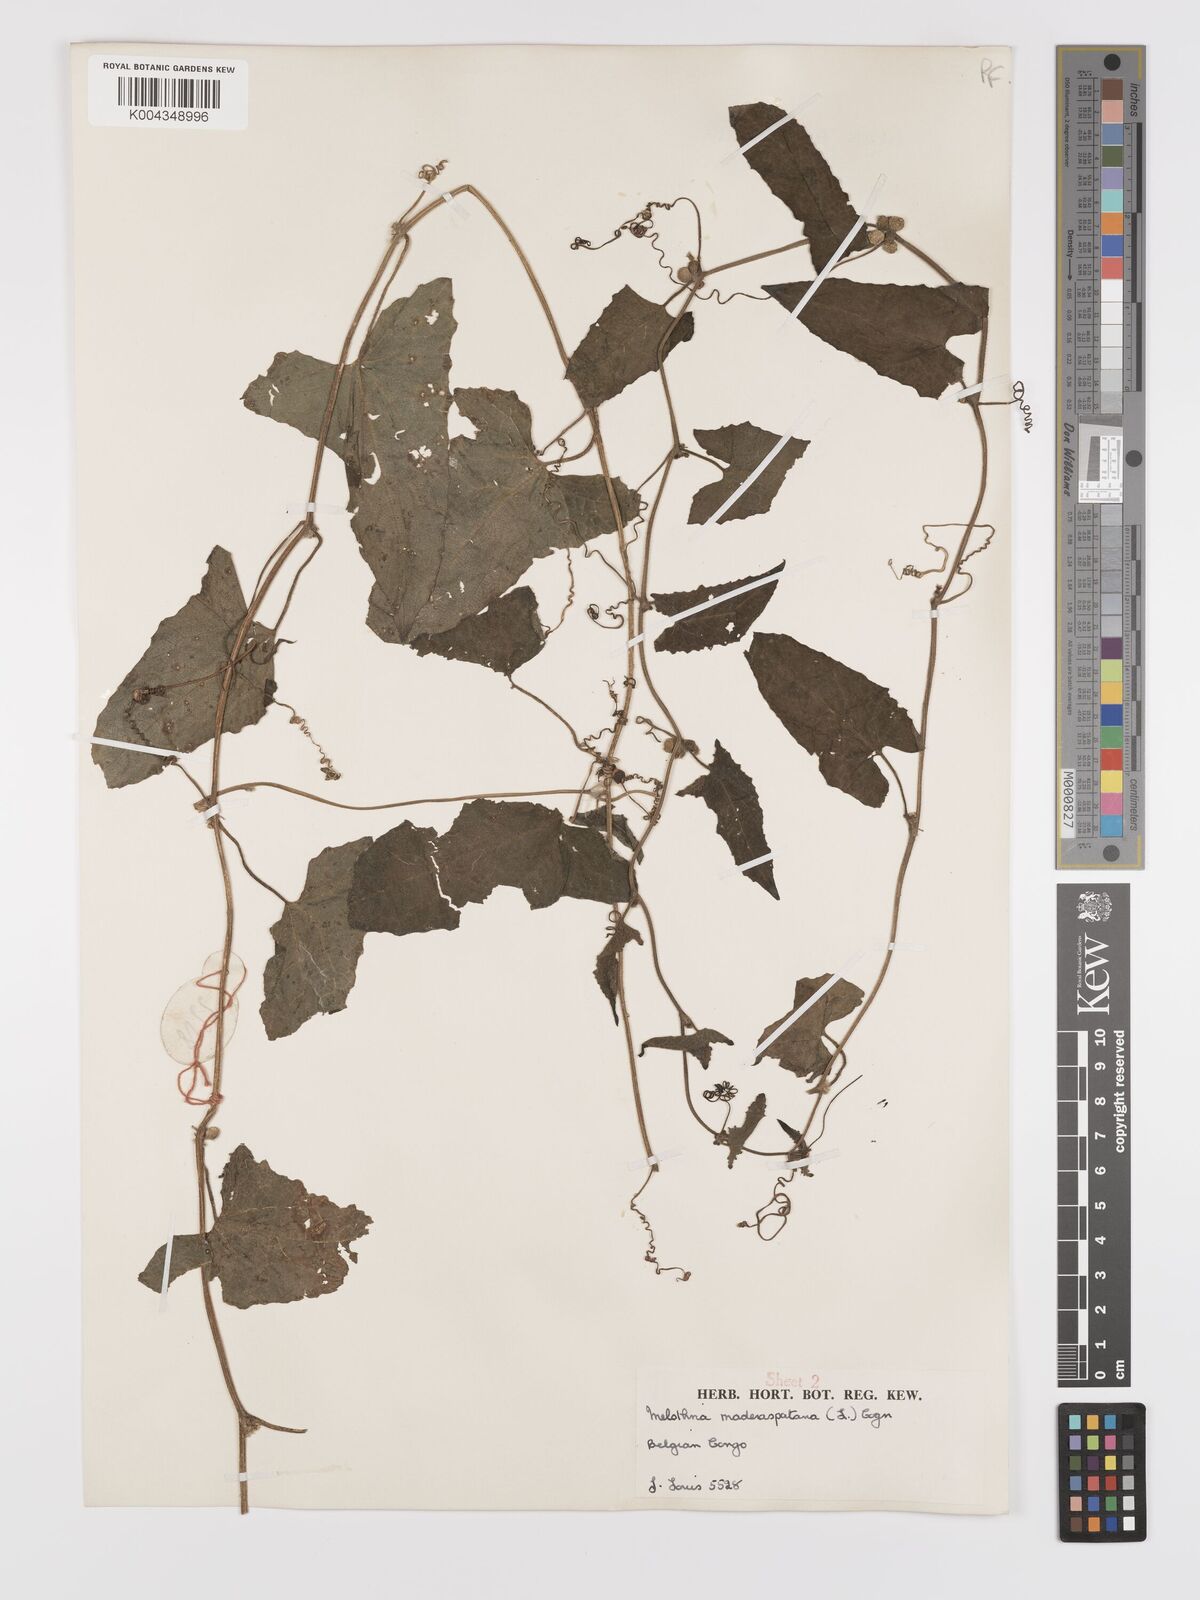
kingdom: Plantae
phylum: Tracheophyta
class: Magnoliopsida
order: Cucurbitales
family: Cucurbitaceae
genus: Cucumis
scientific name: Cucumis maderaspatanus
